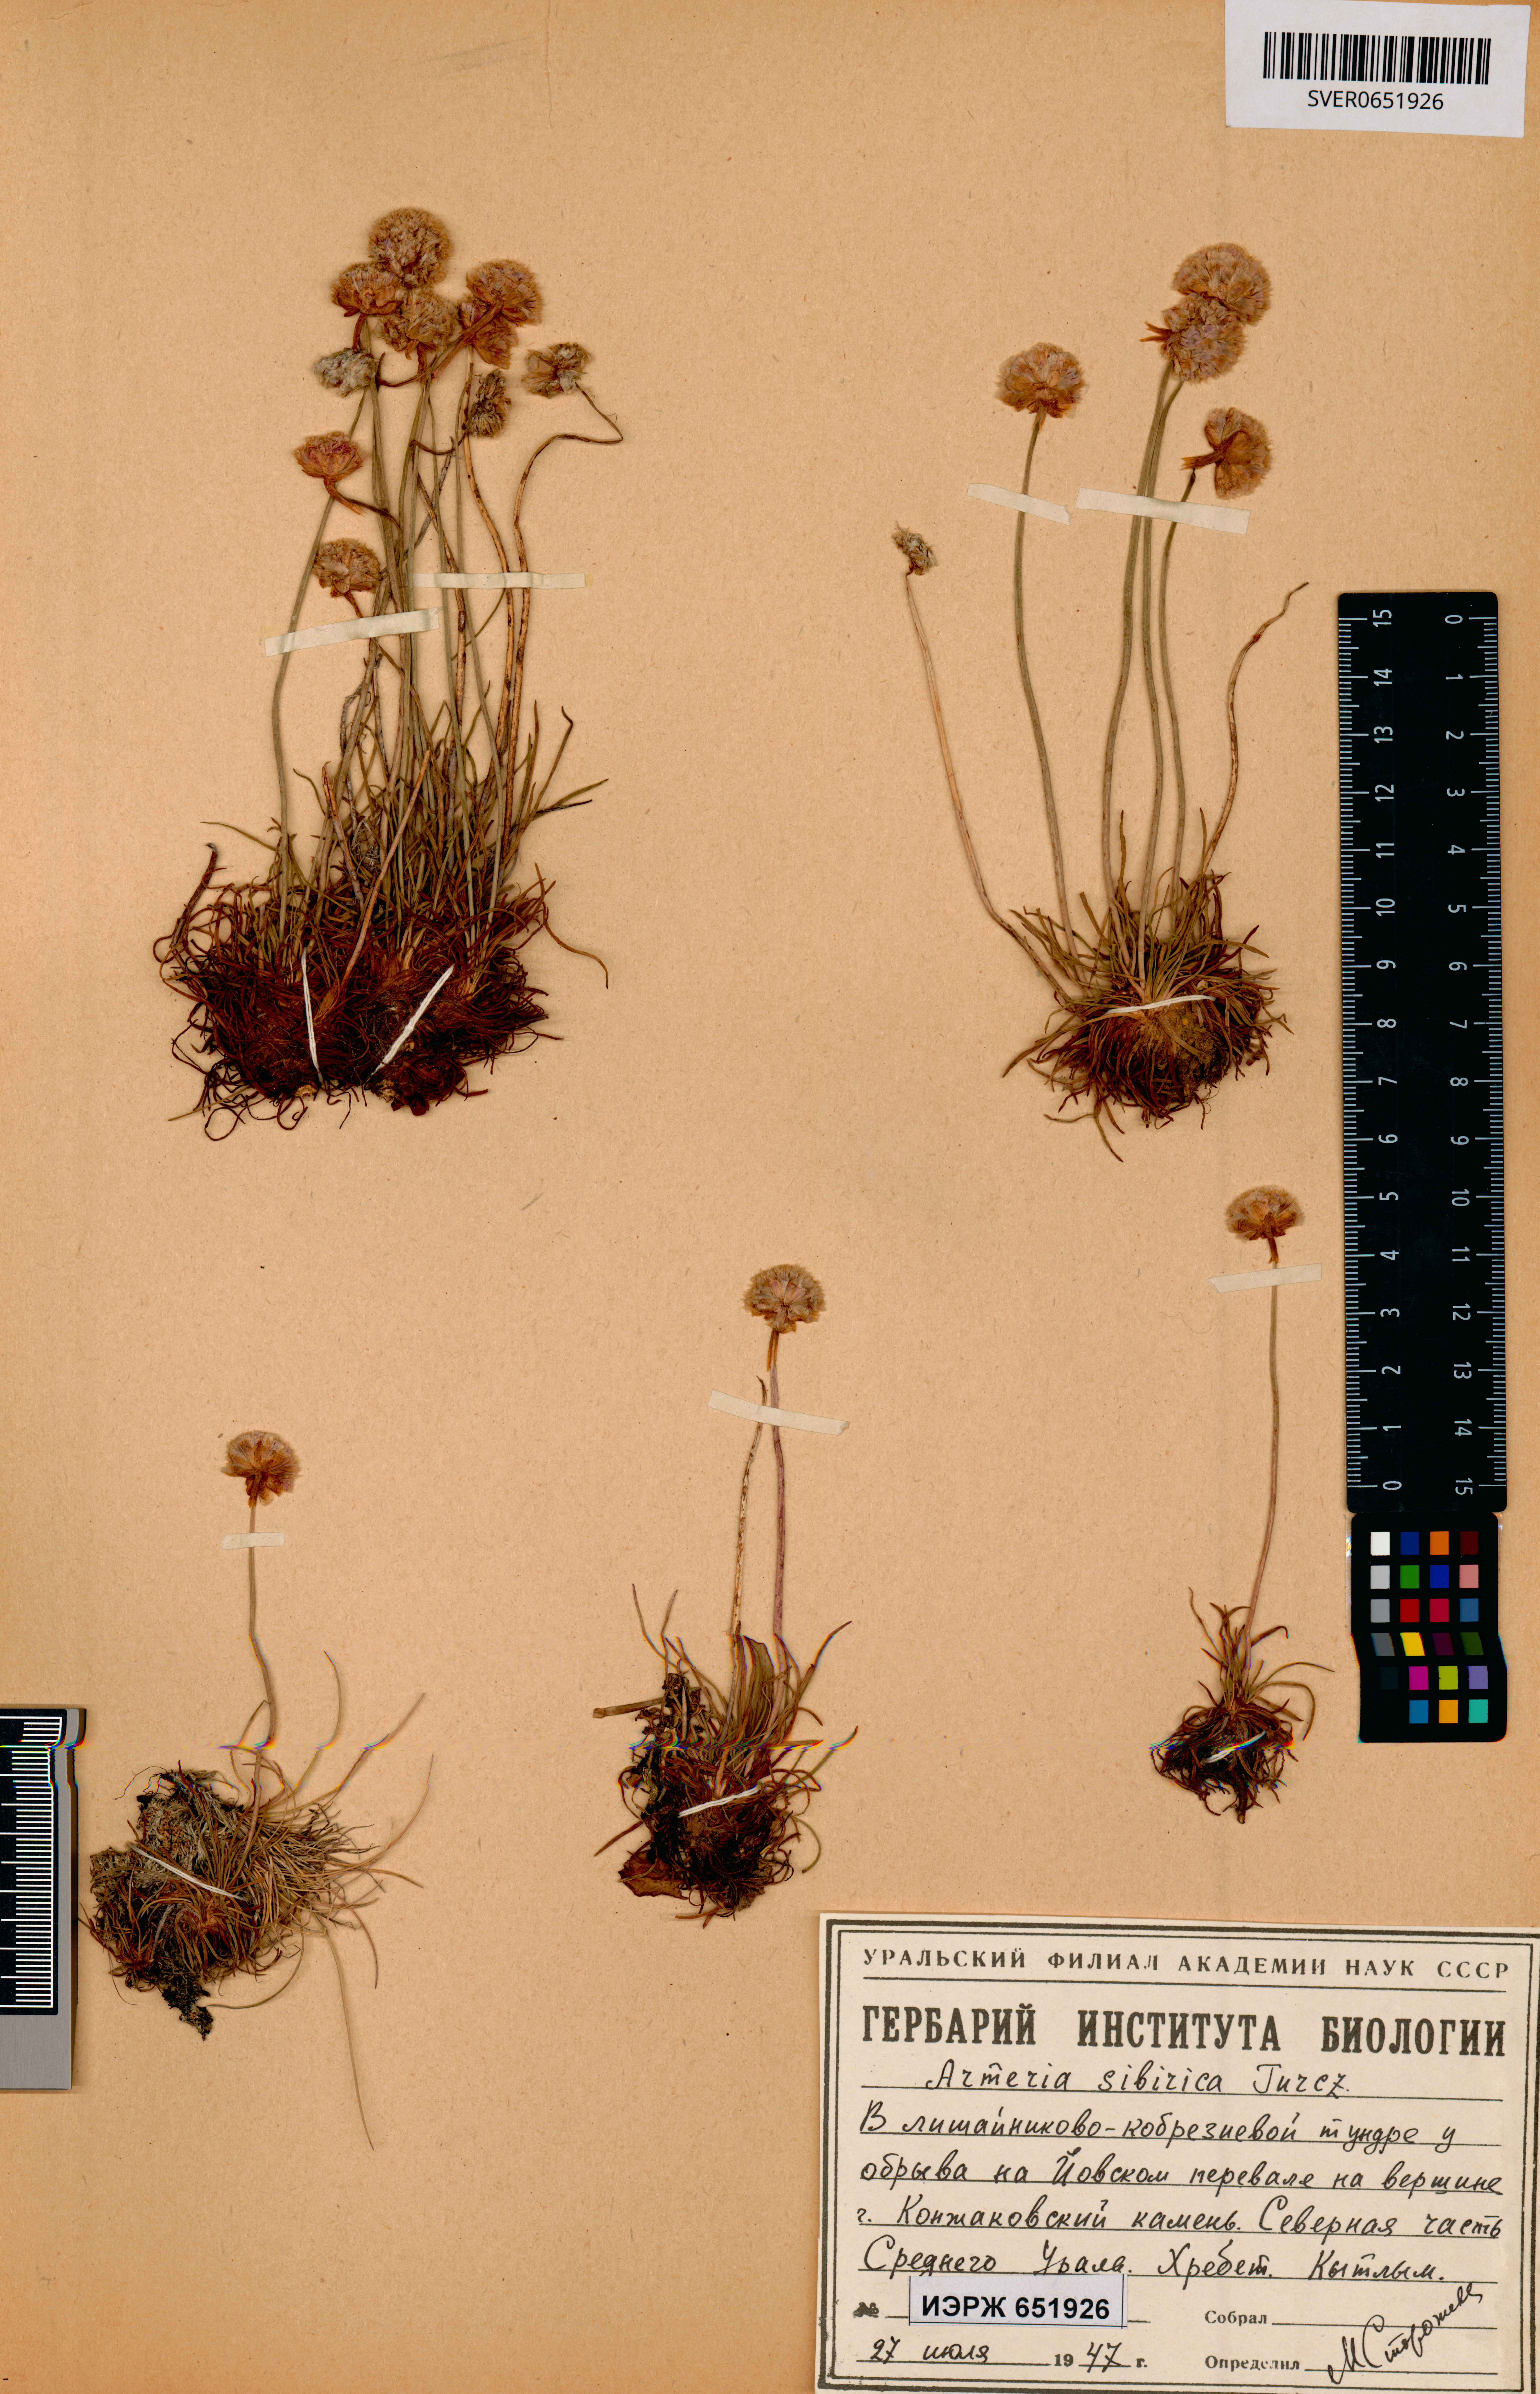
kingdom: Plantae
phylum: Tracheophyta
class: Magnoliopsida
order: Caryophyllales
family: Plumbaginaceae
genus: Armeria
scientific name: Armeria maritima
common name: Thrift
